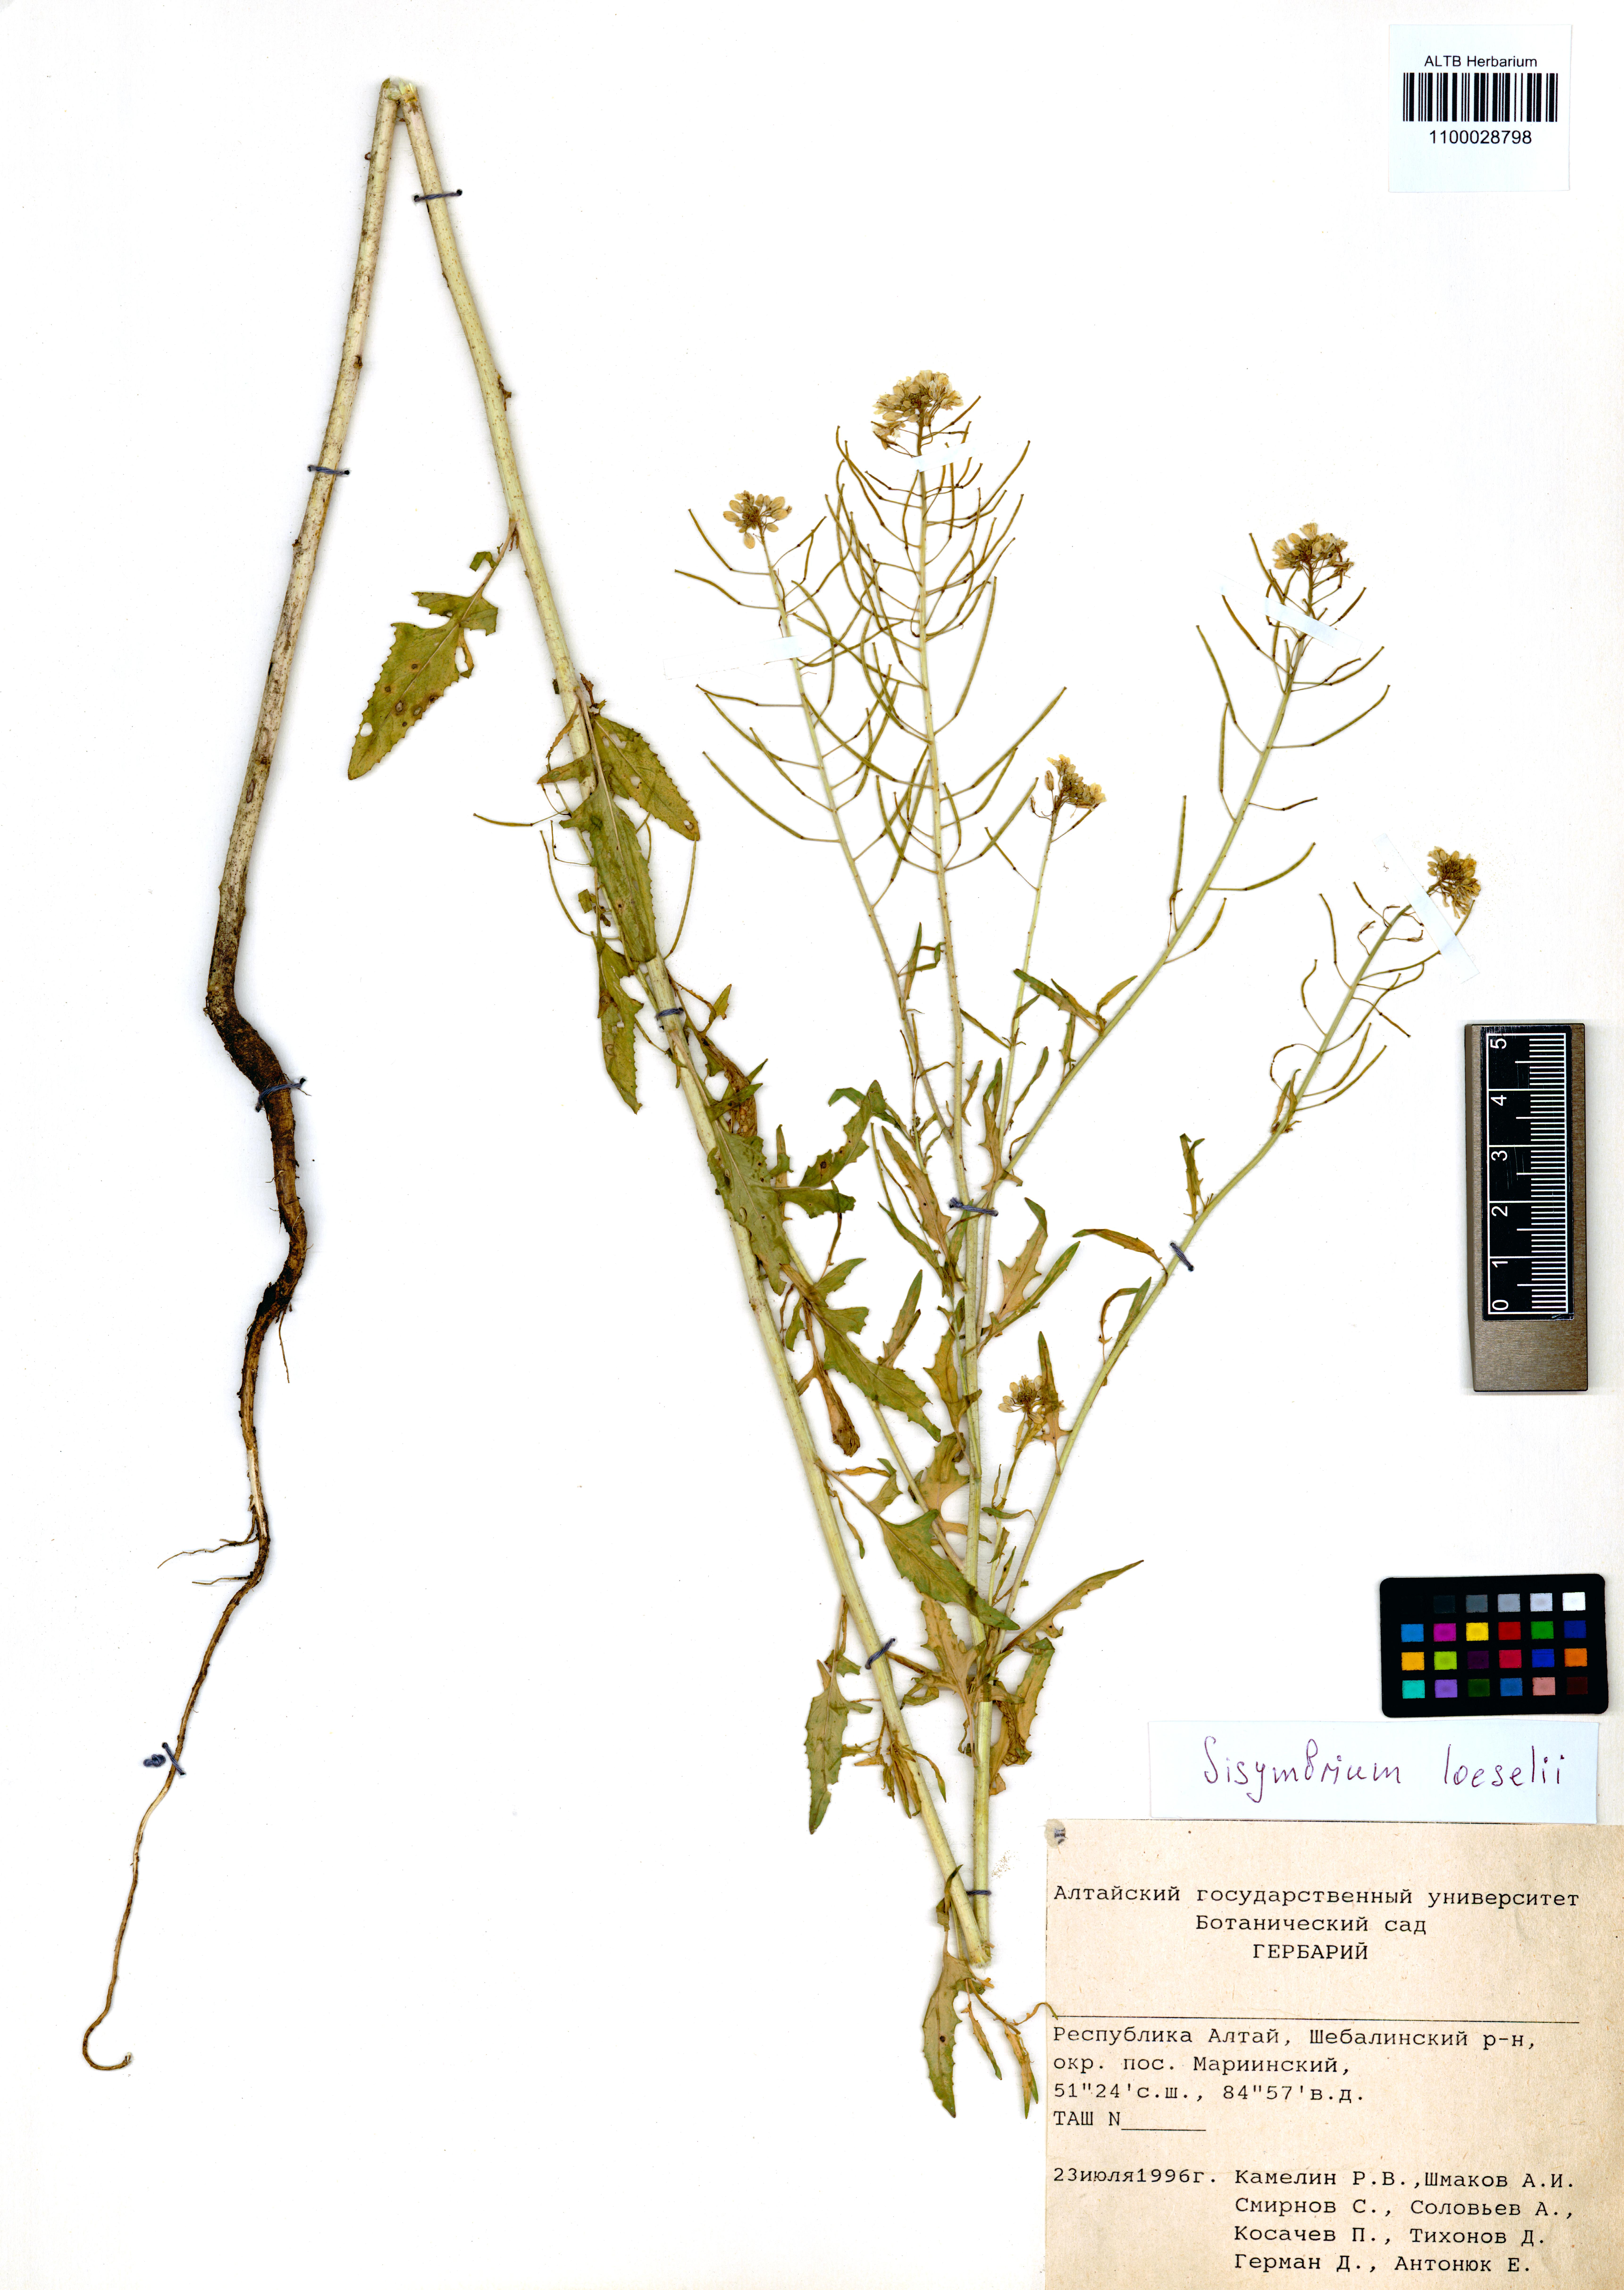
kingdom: Plantae
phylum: Tracheophyta
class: Magnoliopsida
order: Brassicales
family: Brassicaceae
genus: Sisymbrium
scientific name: Sisymbrium loeselii
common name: False london-rocket
